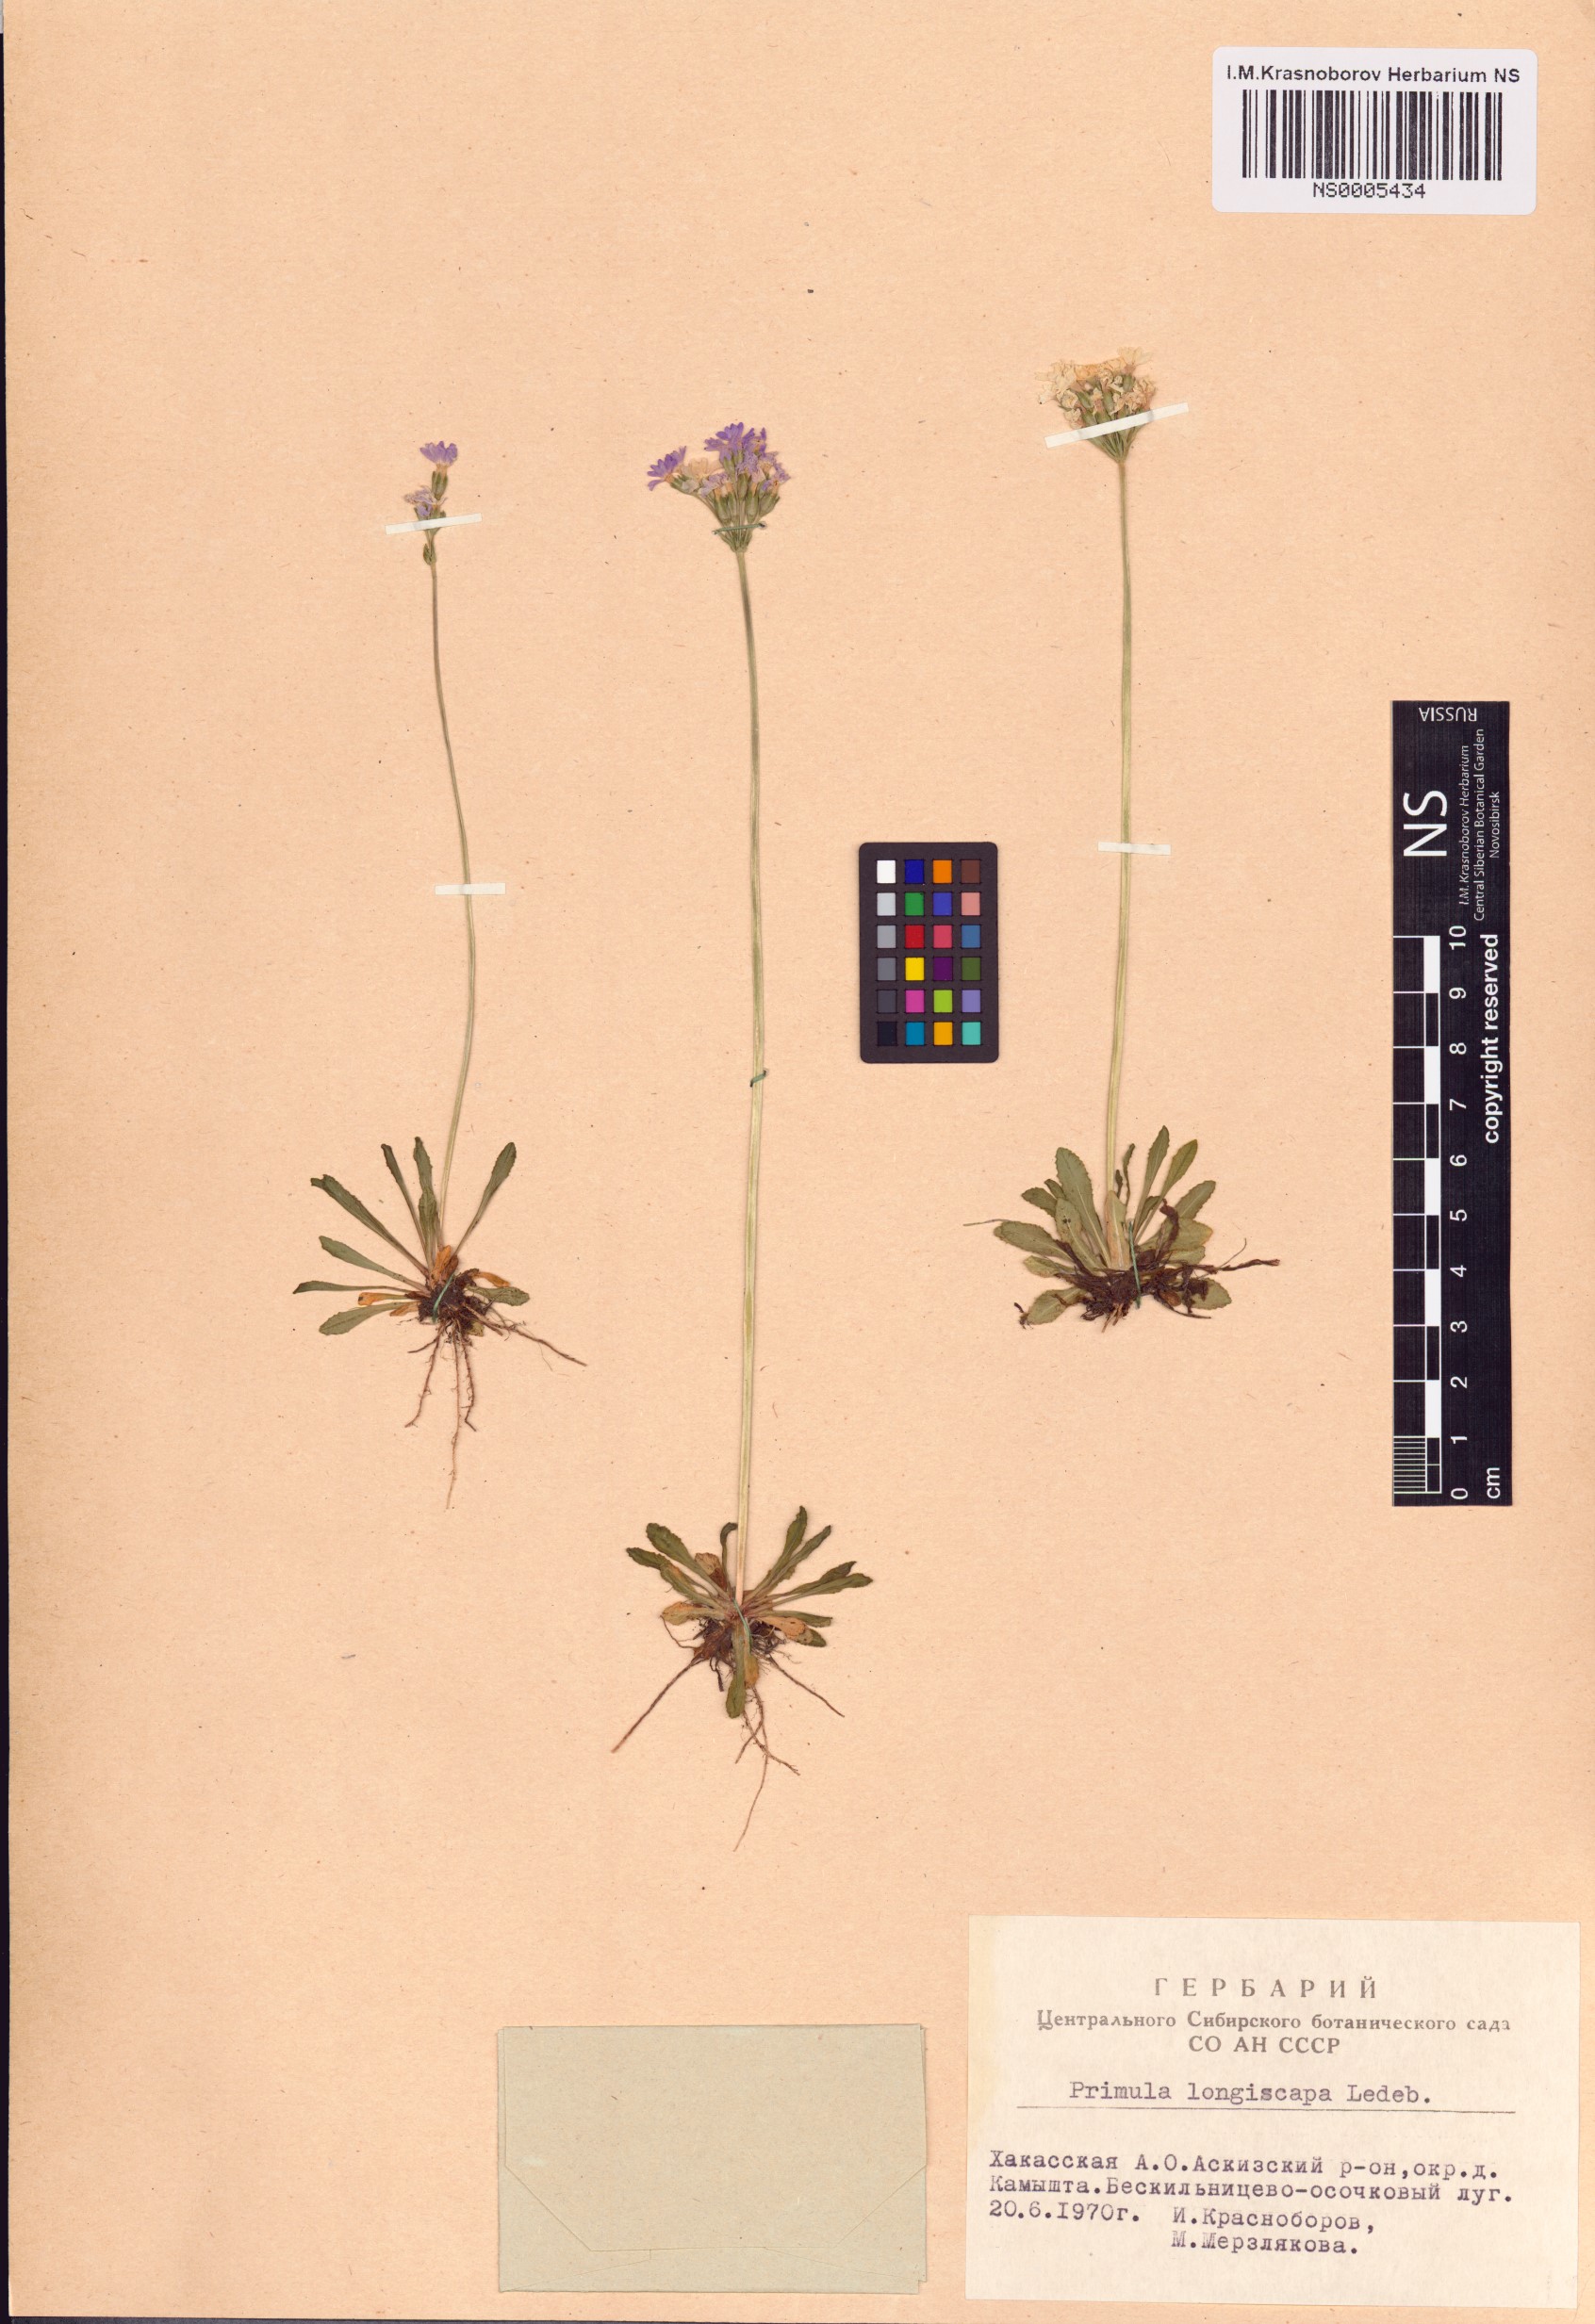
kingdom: Plantae
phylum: Tracheophyta
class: Magnoliopsida
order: Ericales
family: Primulaceae
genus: Primula
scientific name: Primula longiscapa
